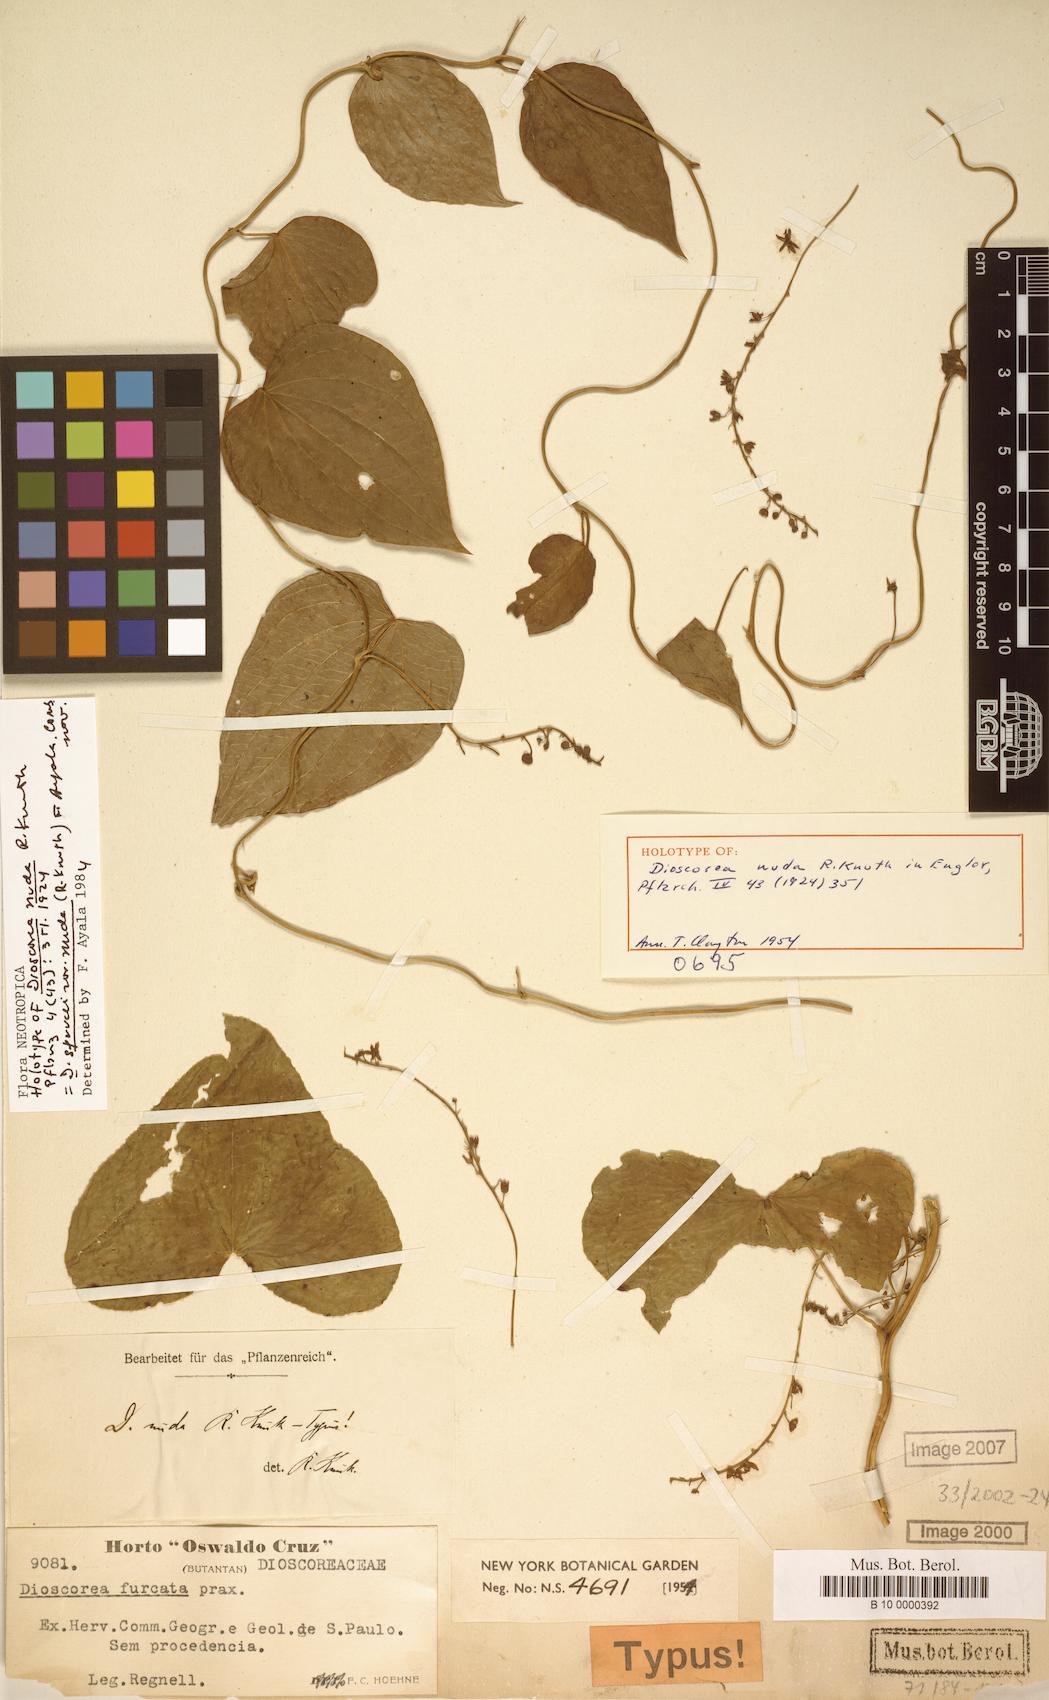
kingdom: Plantae
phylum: Tracheophyta
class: Liliopsida
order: Dioscoreales
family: Dioscoreaceae
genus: Dioscorea
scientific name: Dioscorea sprucei
